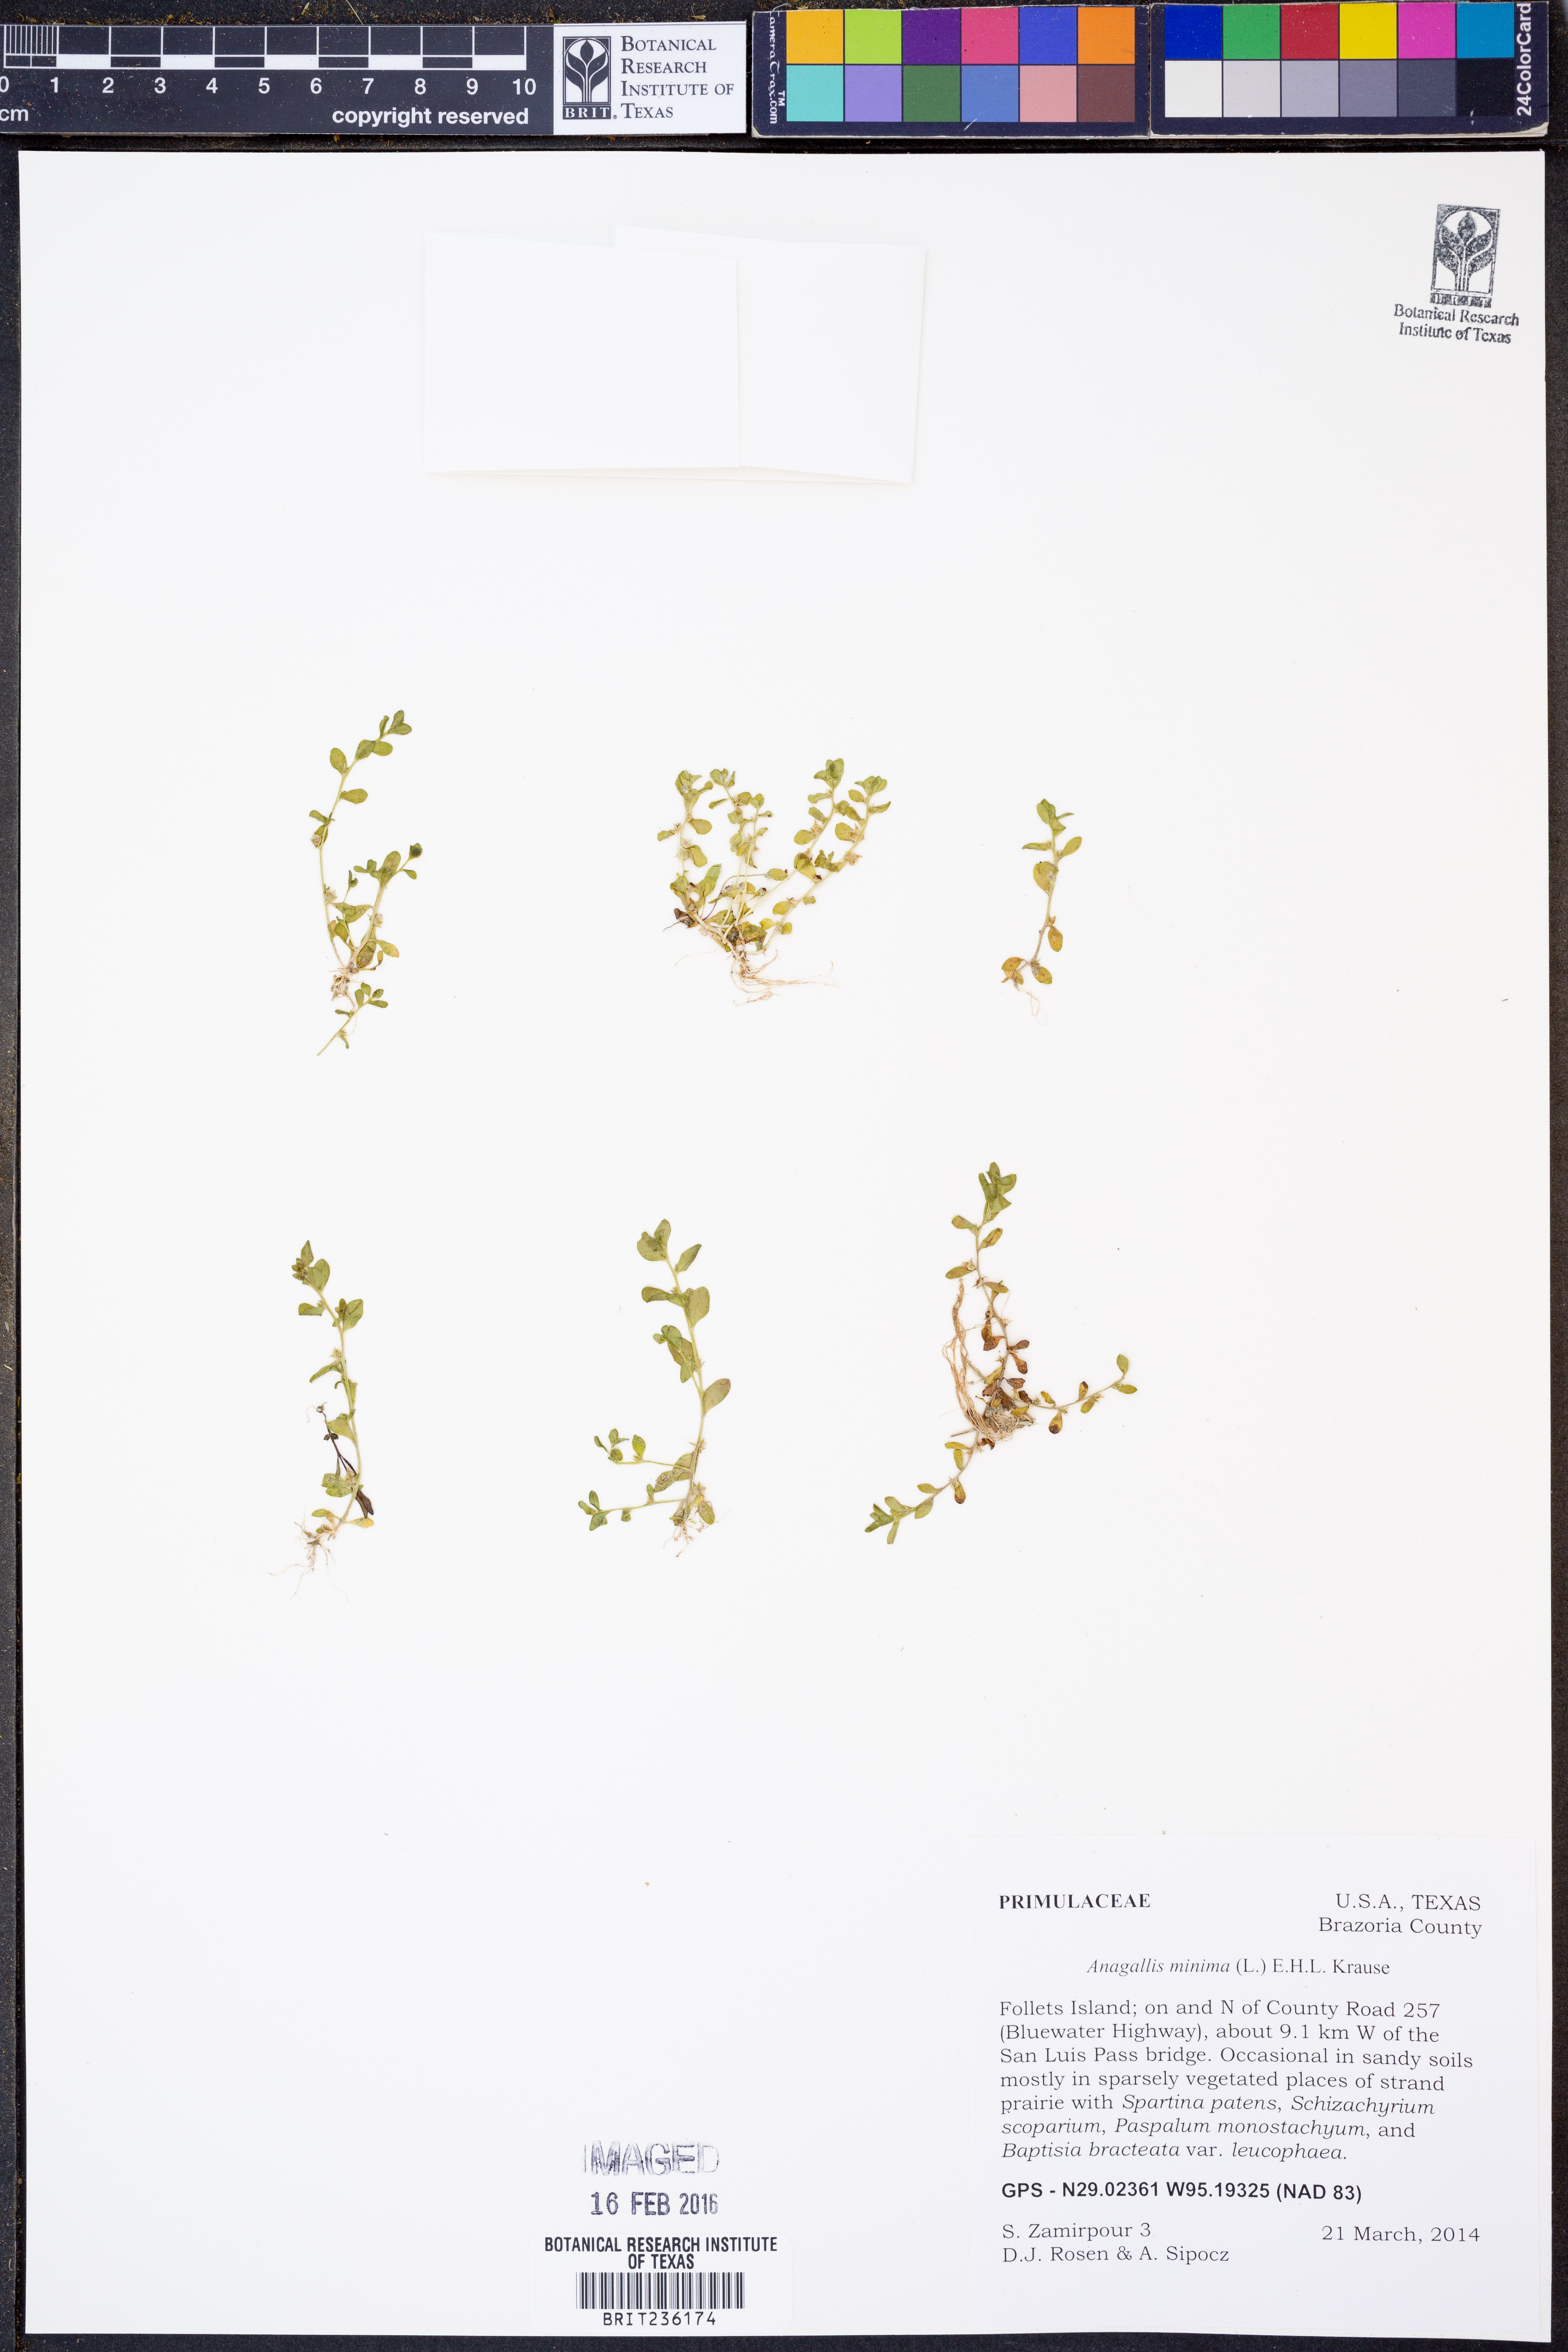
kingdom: Plantae
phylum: Tracheophyta
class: Magnoliopsida
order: Ericales
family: Primulaceae
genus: Lysimachia
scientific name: Lysimachia minima
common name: Chaffweed
